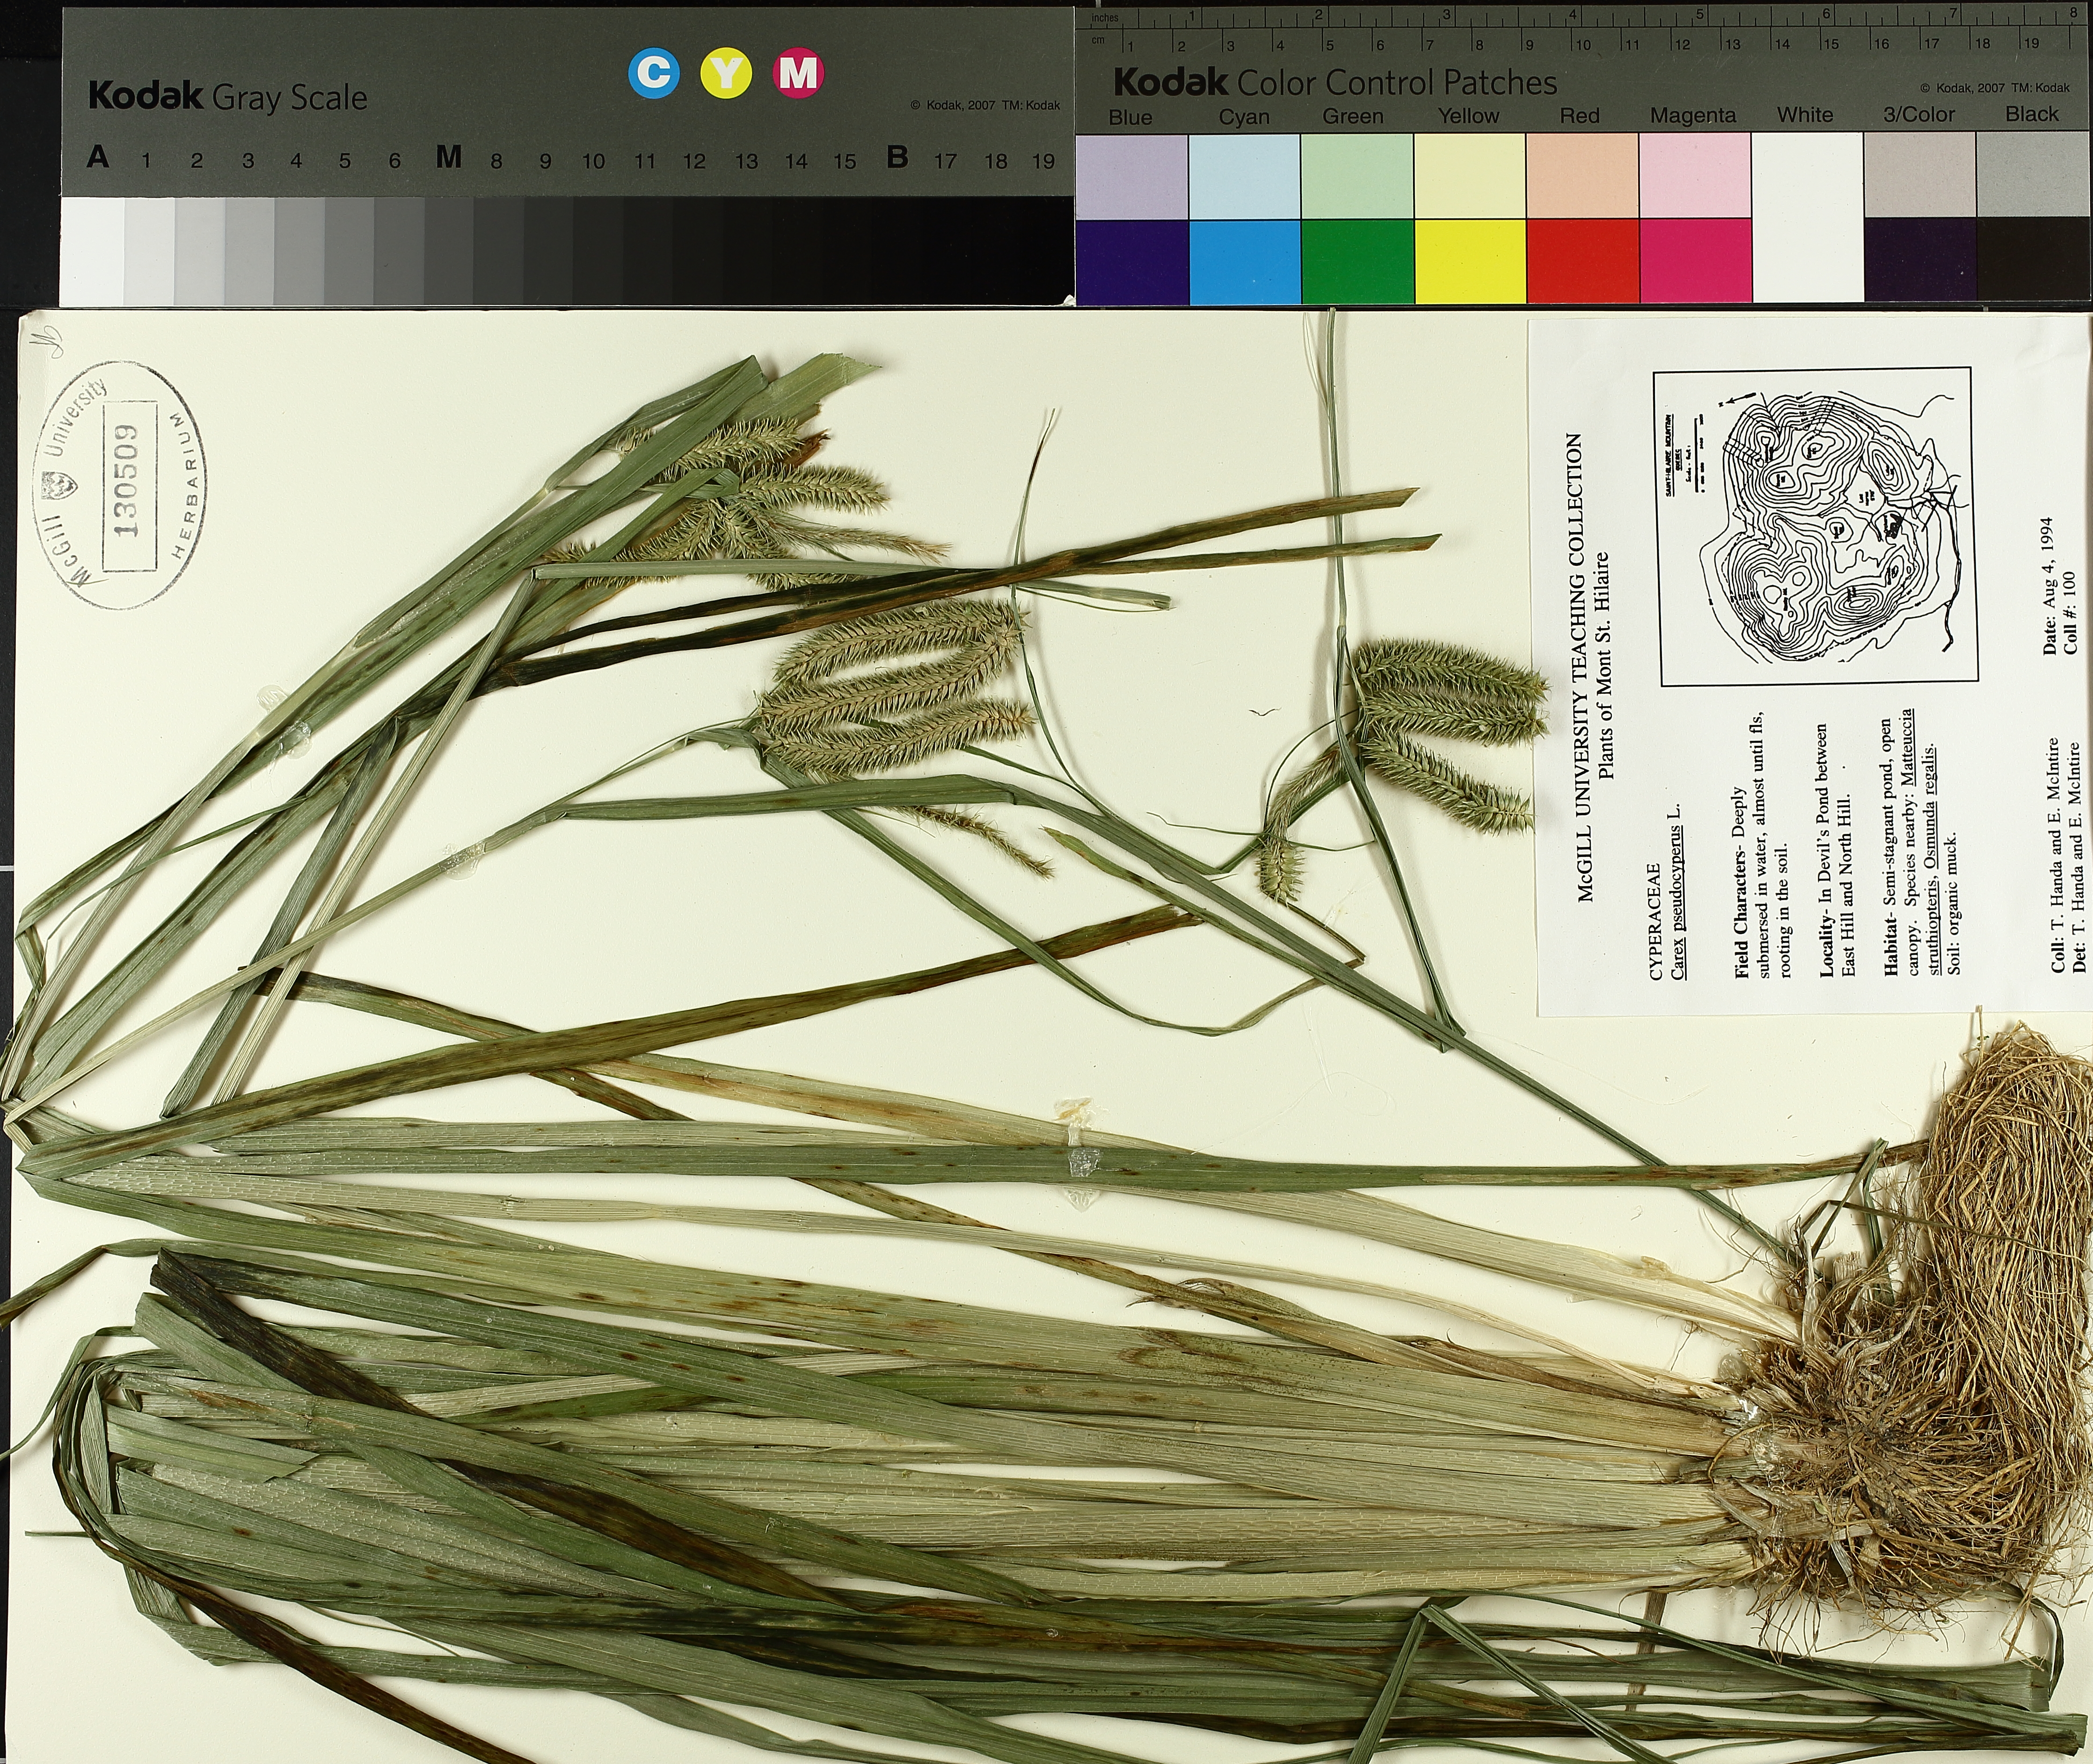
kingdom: Plantae
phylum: Tracheophyta
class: Liliopsida
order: Poales
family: Cyperaceae
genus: Carex
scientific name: Carex pseudocyperus
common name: Cyperus sedge
